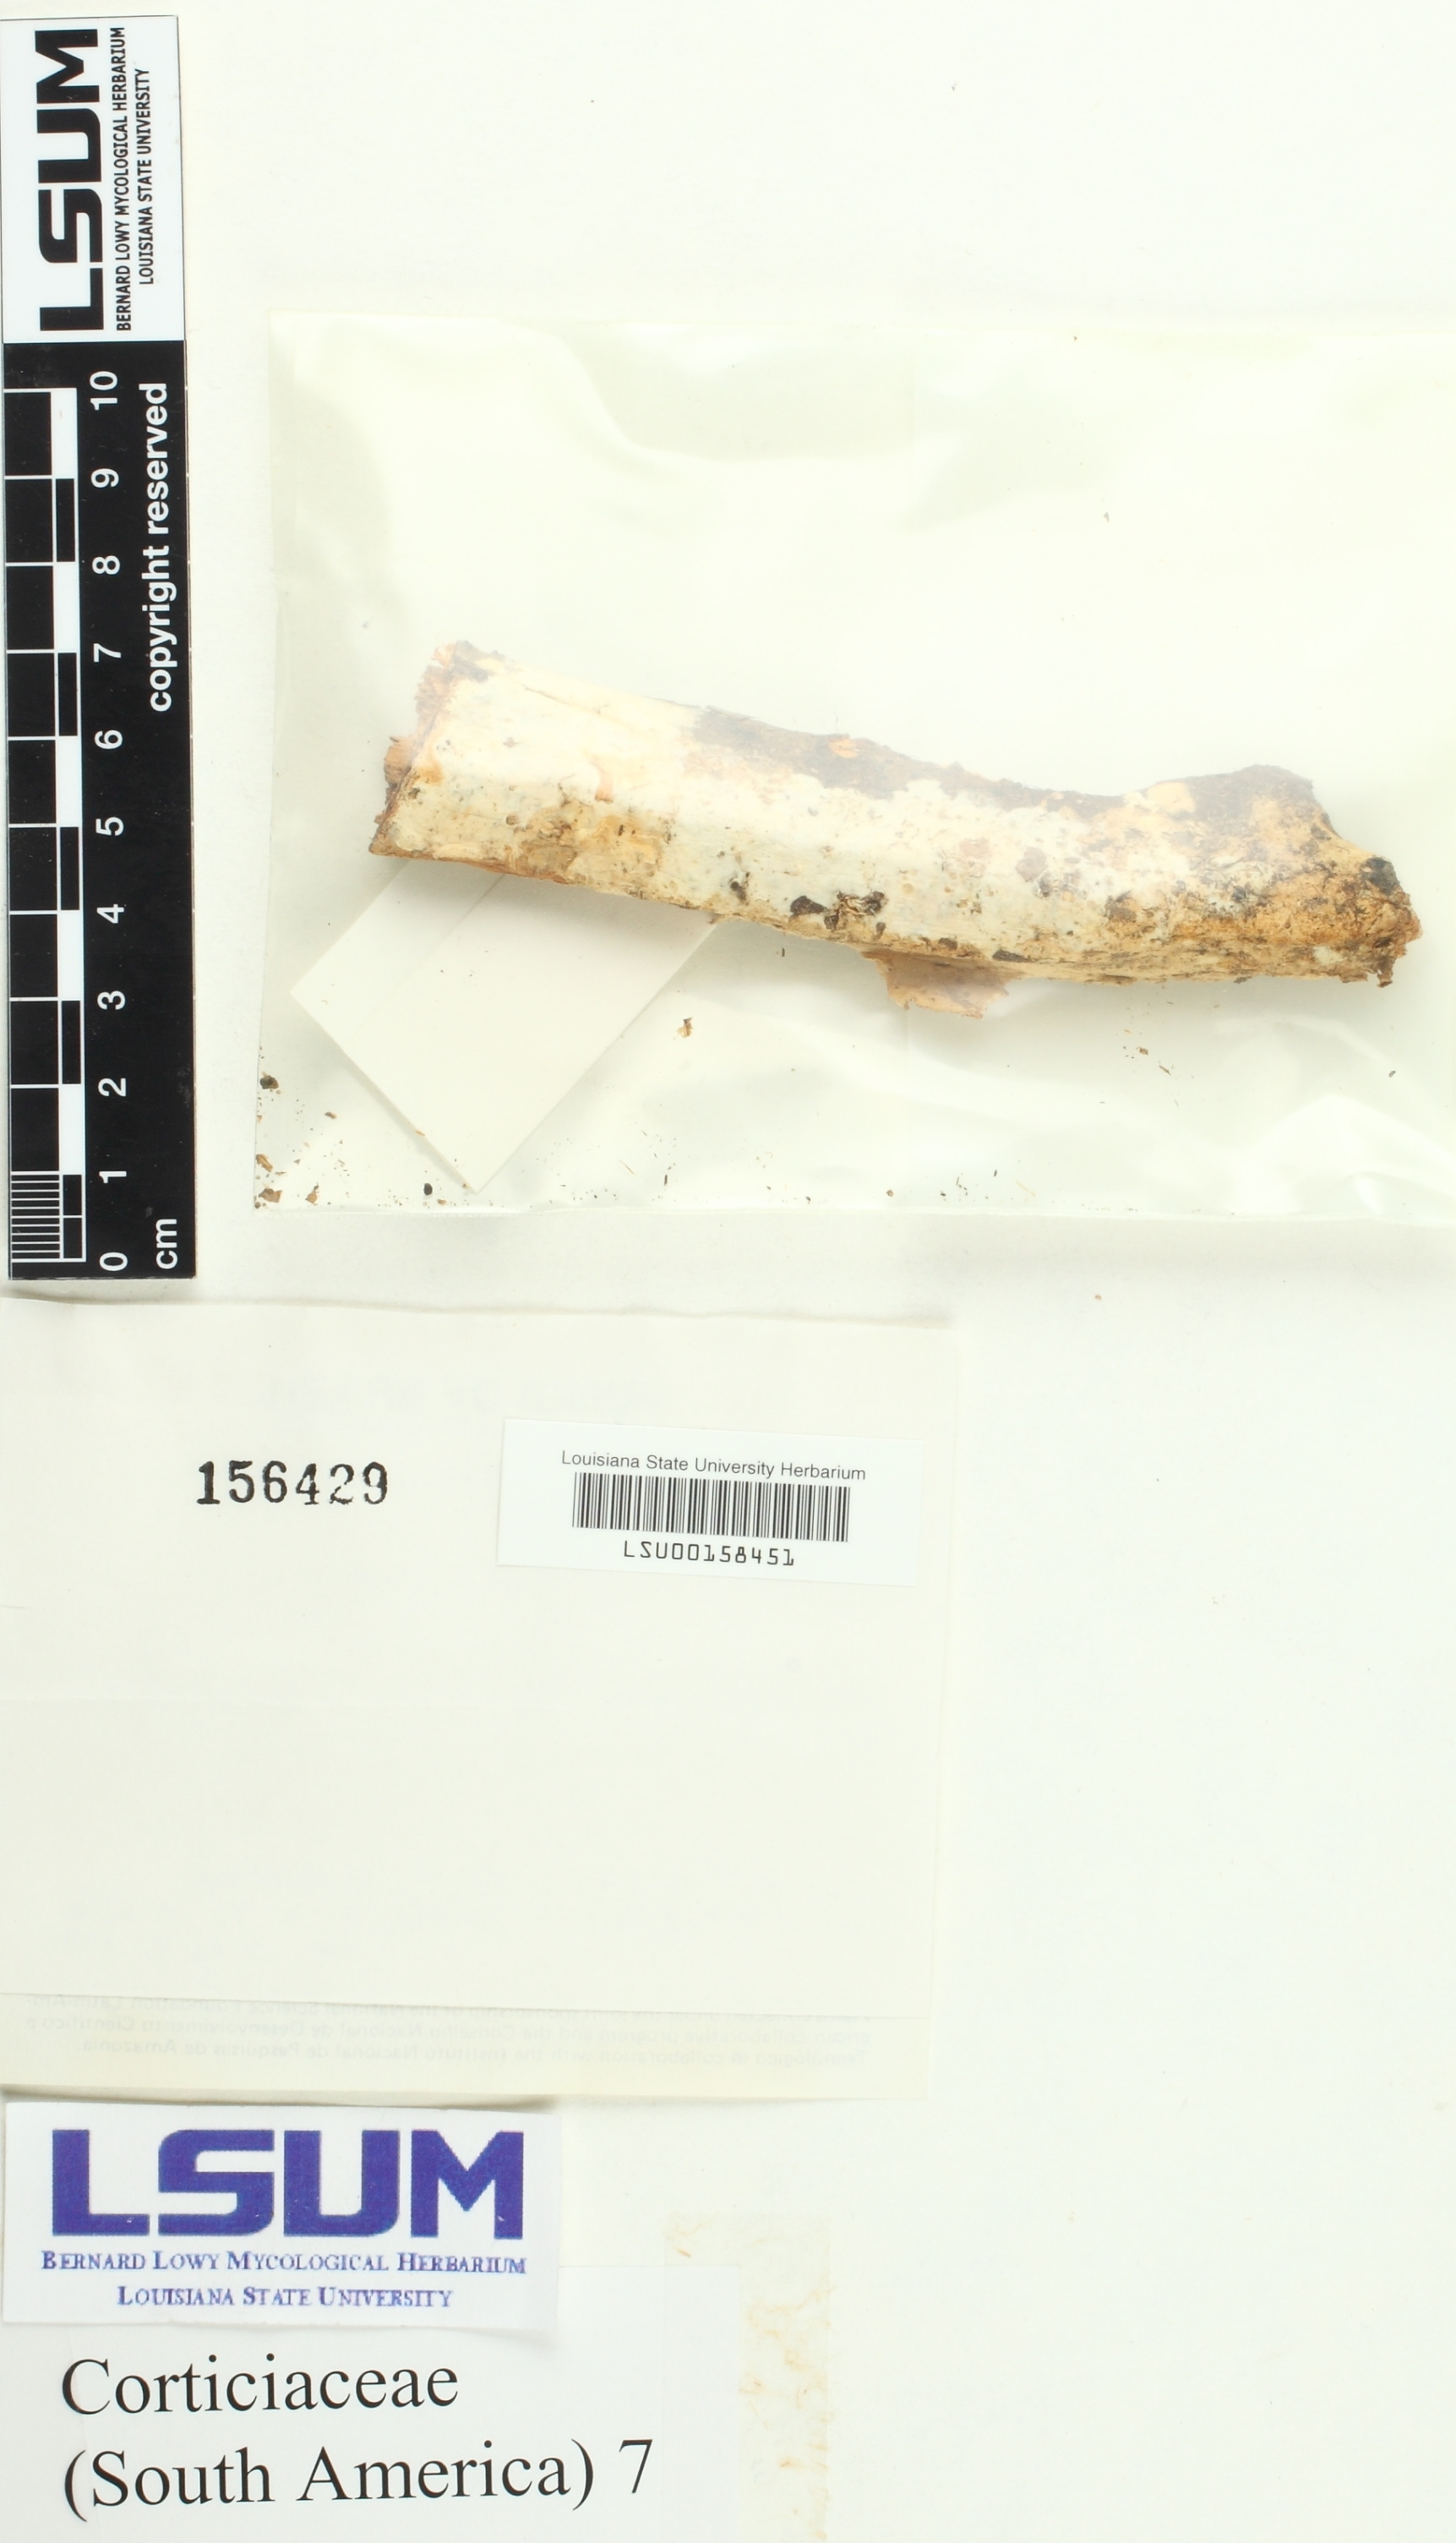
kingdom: Fungi
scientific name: Fungi
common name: Fungi
